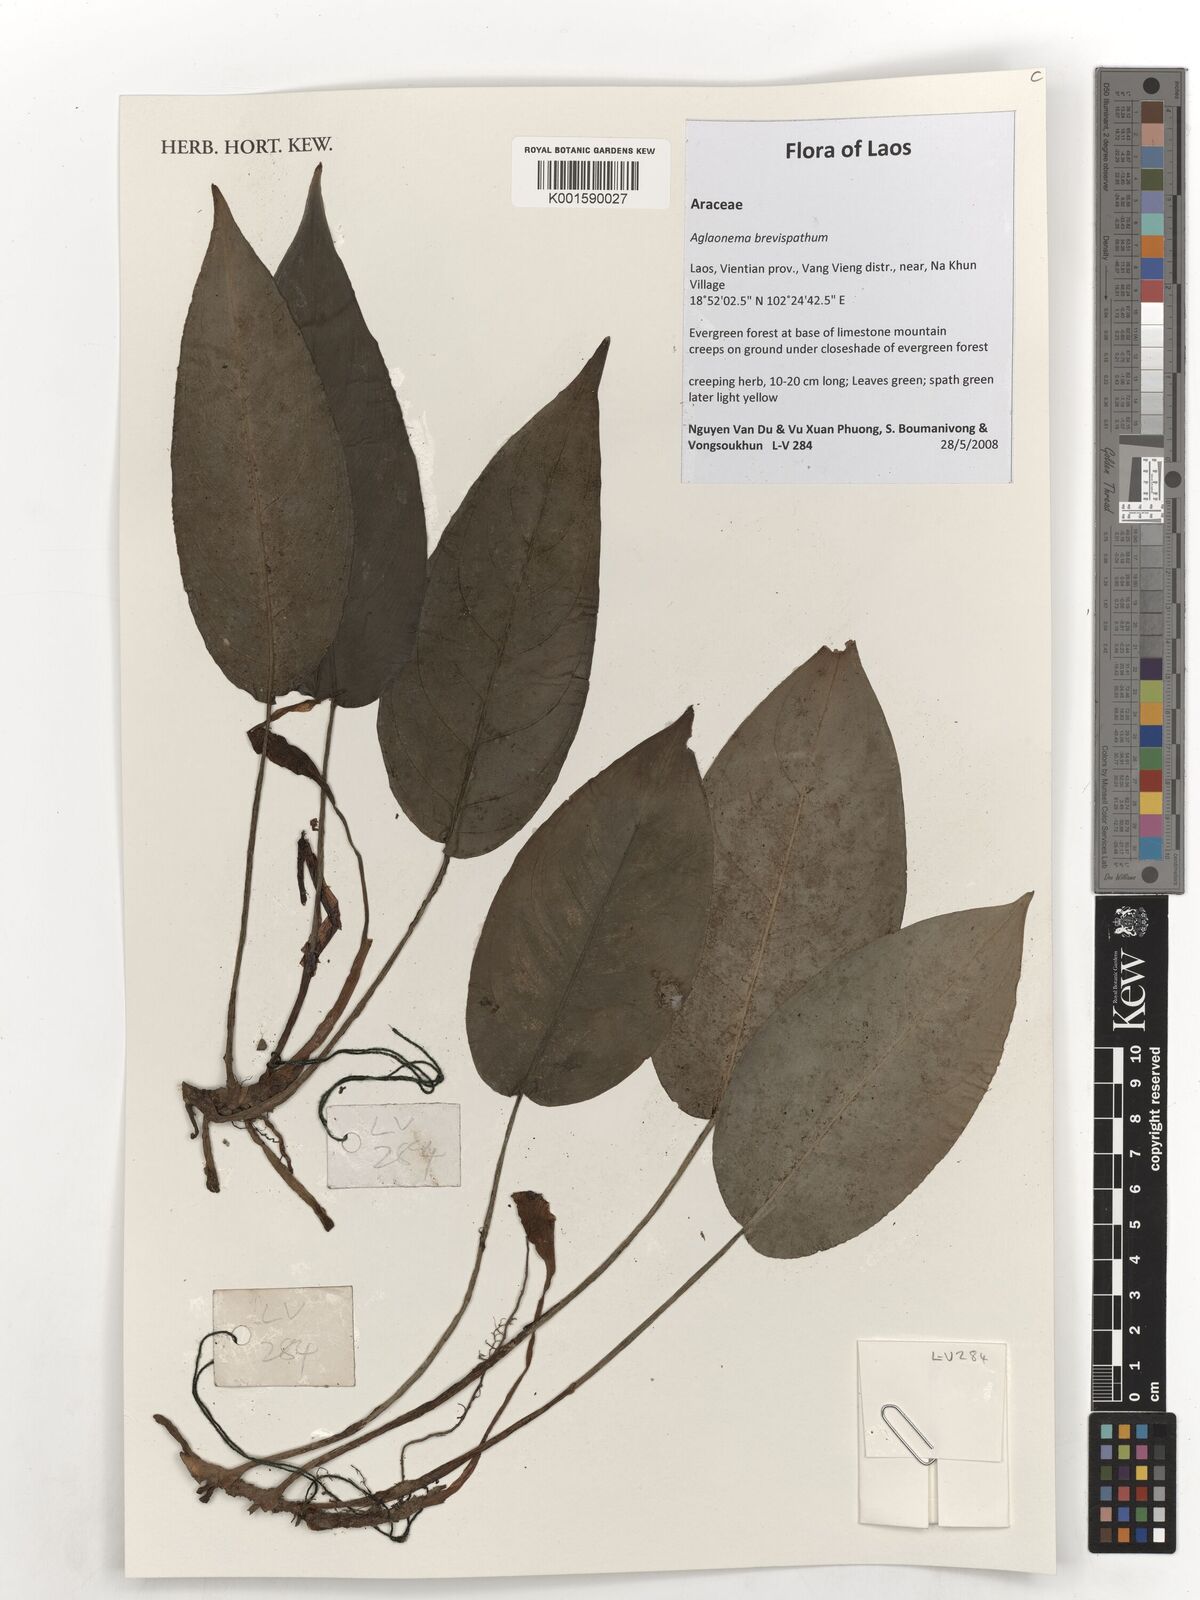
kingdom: Plantae
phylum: Tracheophyta
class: Liliopsida
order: Alismatales
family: Araceae
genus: Aglaonema
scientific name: Aglaonema brevispathum
